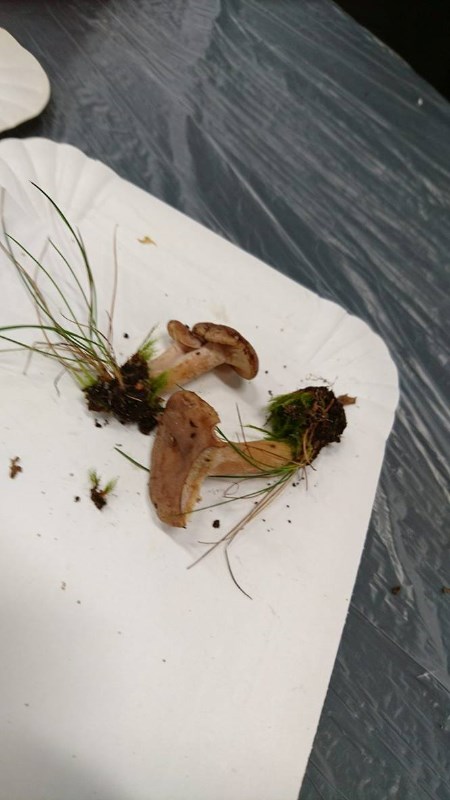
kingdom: Fungi
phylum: Basidiomycota
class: Agaricomycetes
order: Russulales
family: Russulaceae
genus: Lactarius
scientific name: Lactarius mammosus
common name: kokosbrun mælkehat
